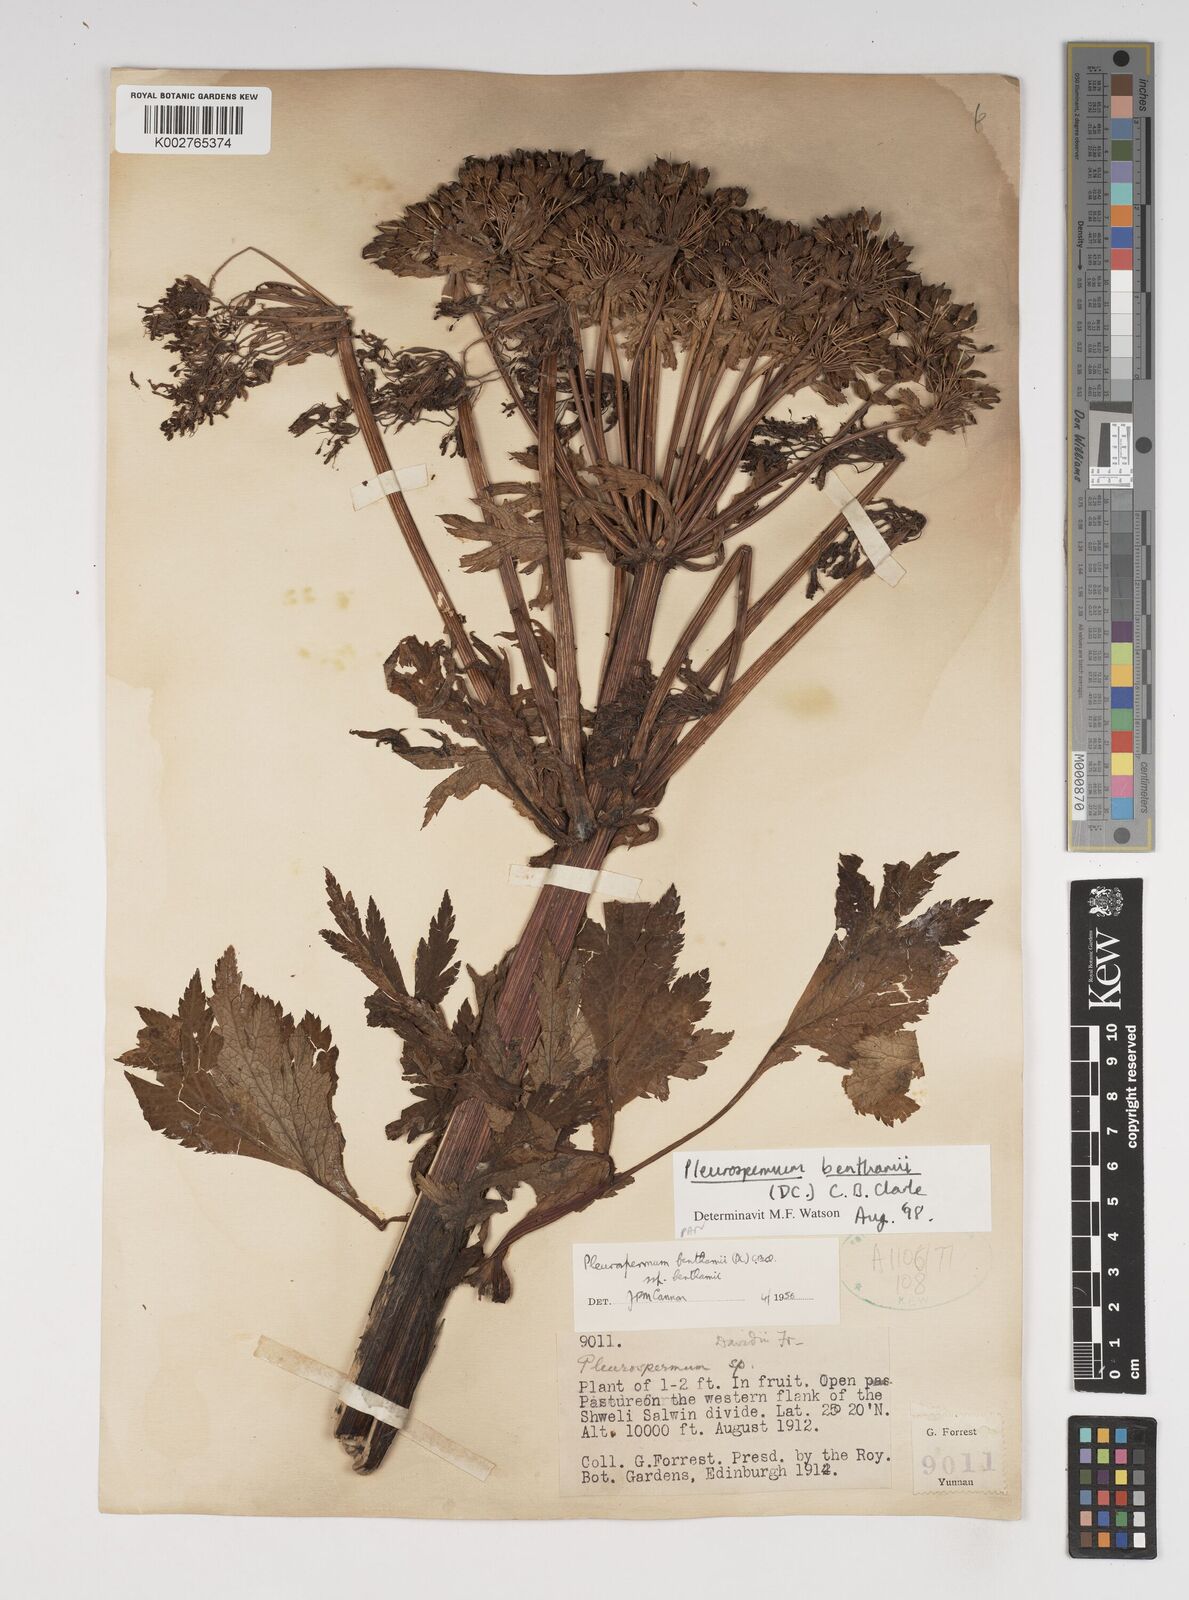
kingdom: Plantae
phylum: Tracheophyta
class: Magnoliopsida
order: Apiales
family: Apiaceae
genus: Hymenidium
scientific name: Hymenidium benthamii
